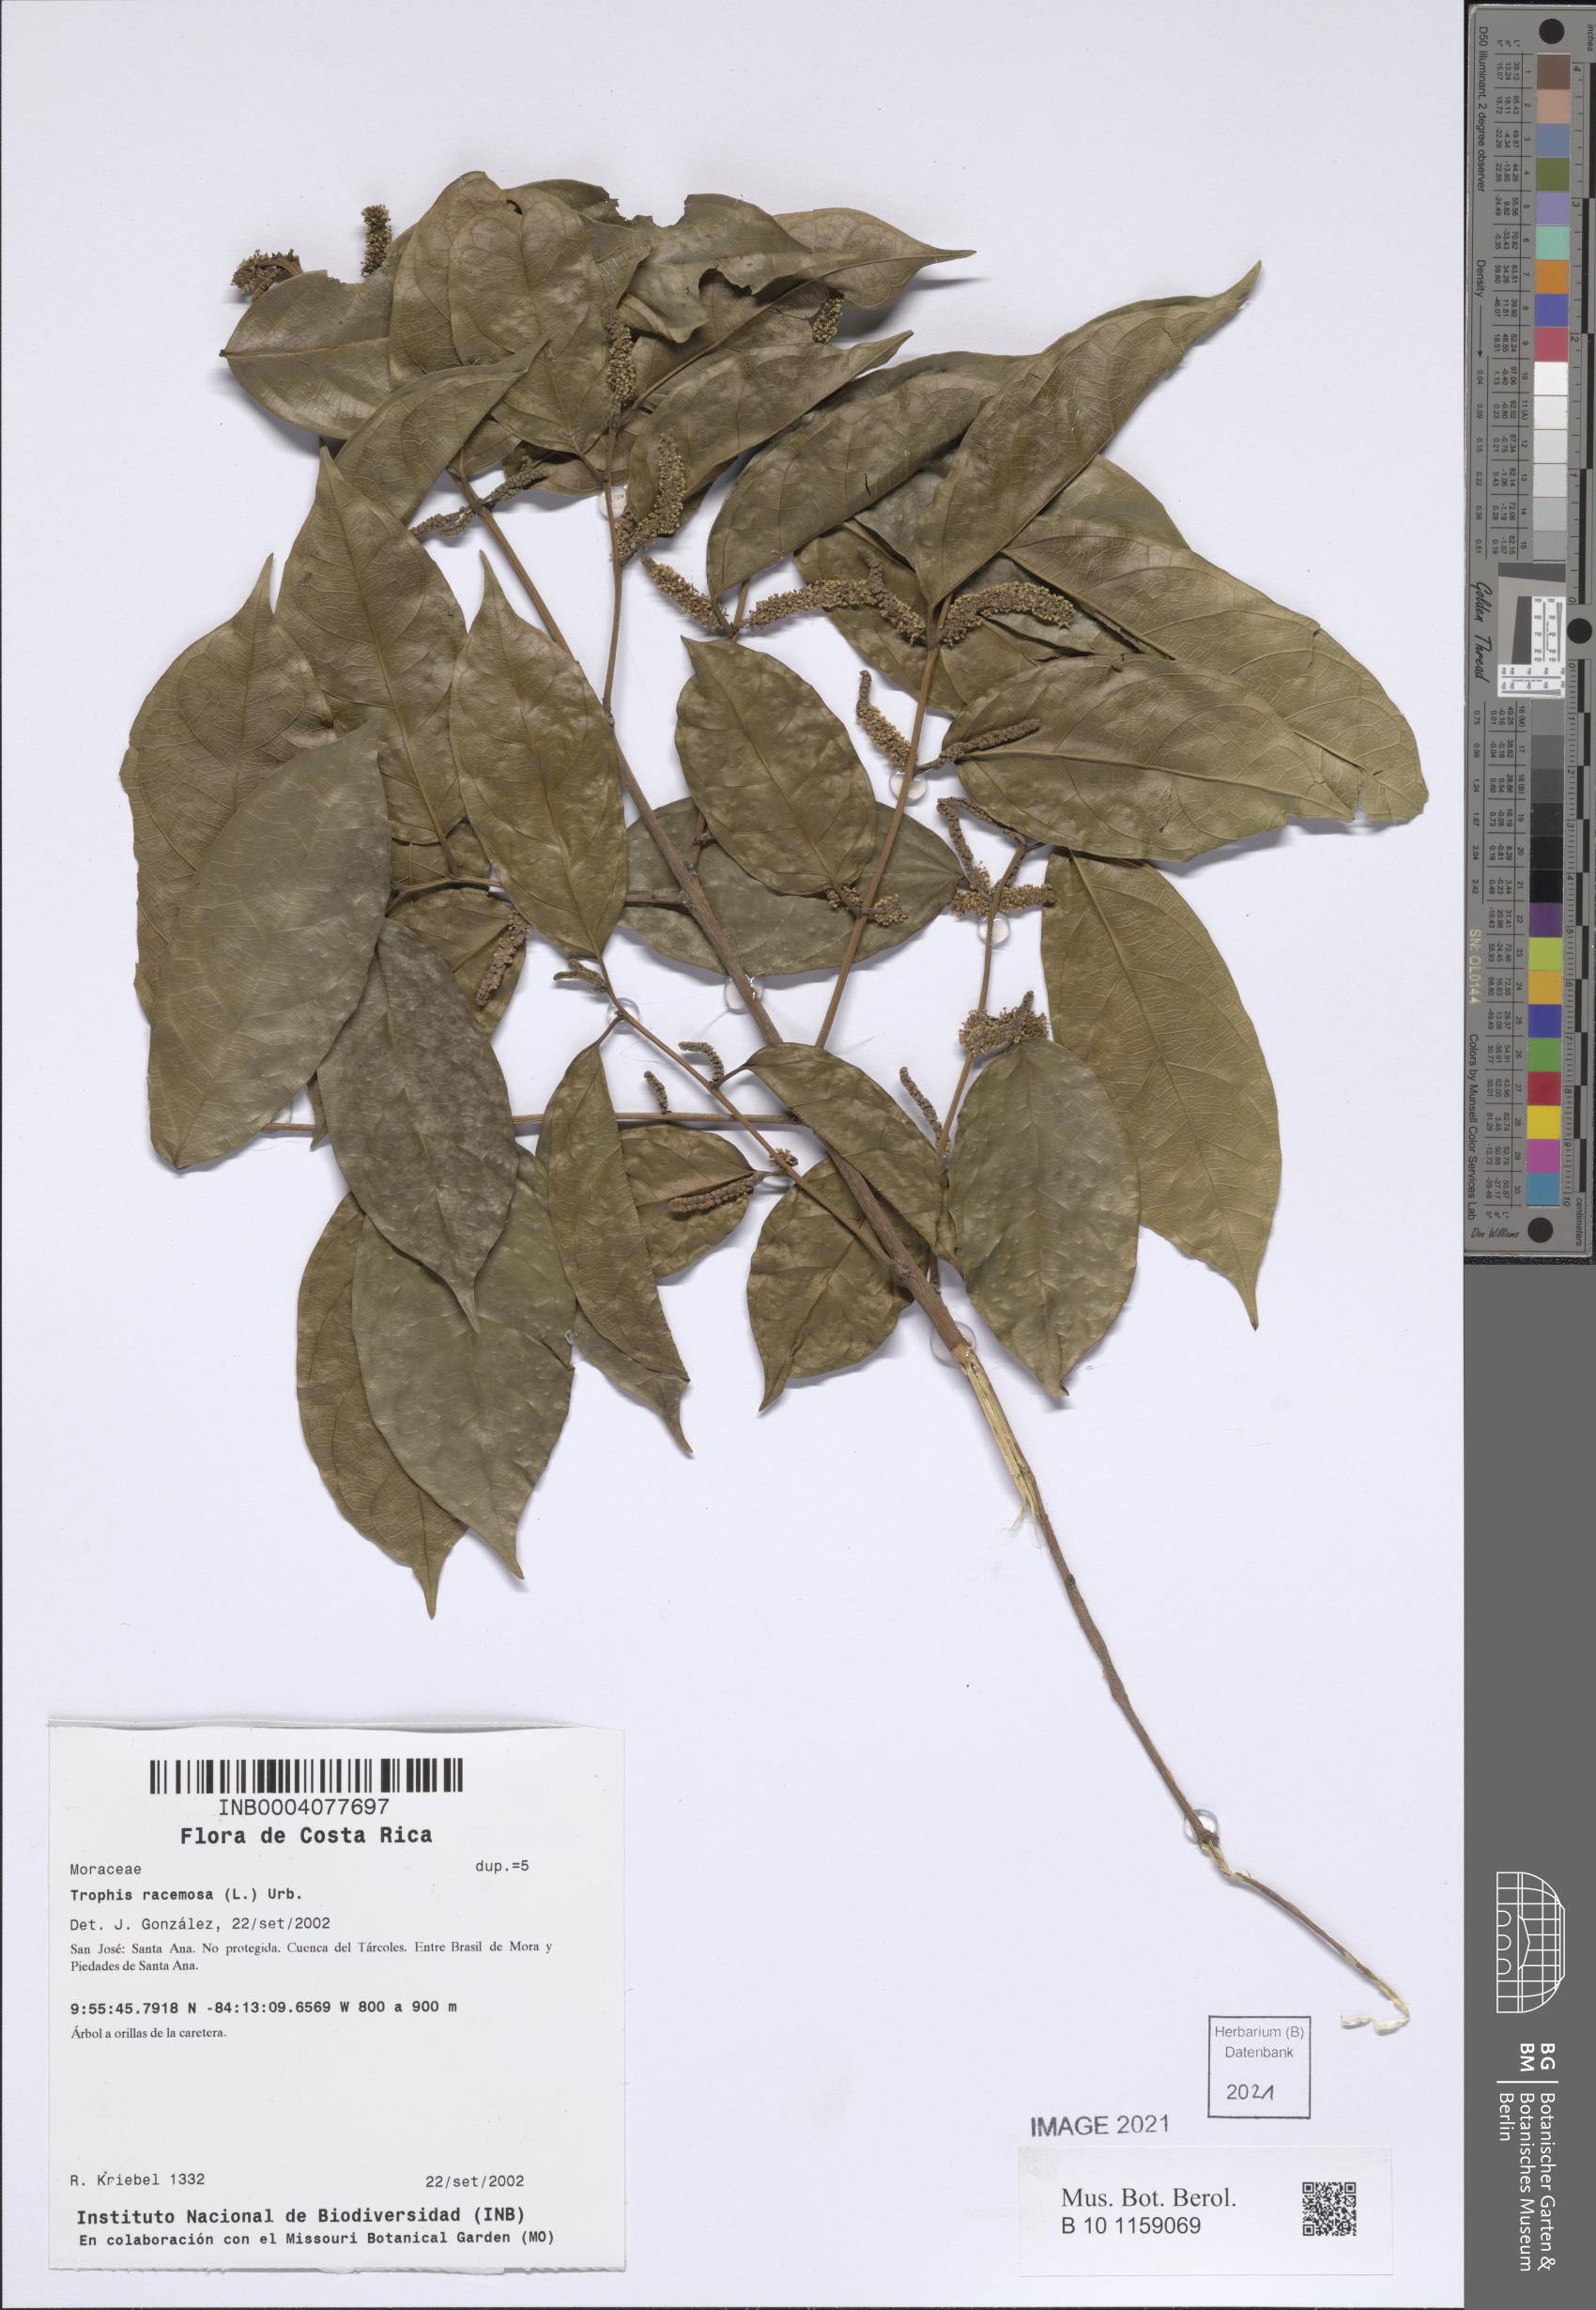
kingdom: Plantae
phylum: Tracheophyta
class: Magnoliopsida
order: Rosales
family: Moraceae
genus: Trophis
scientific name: Trophis racemosa
